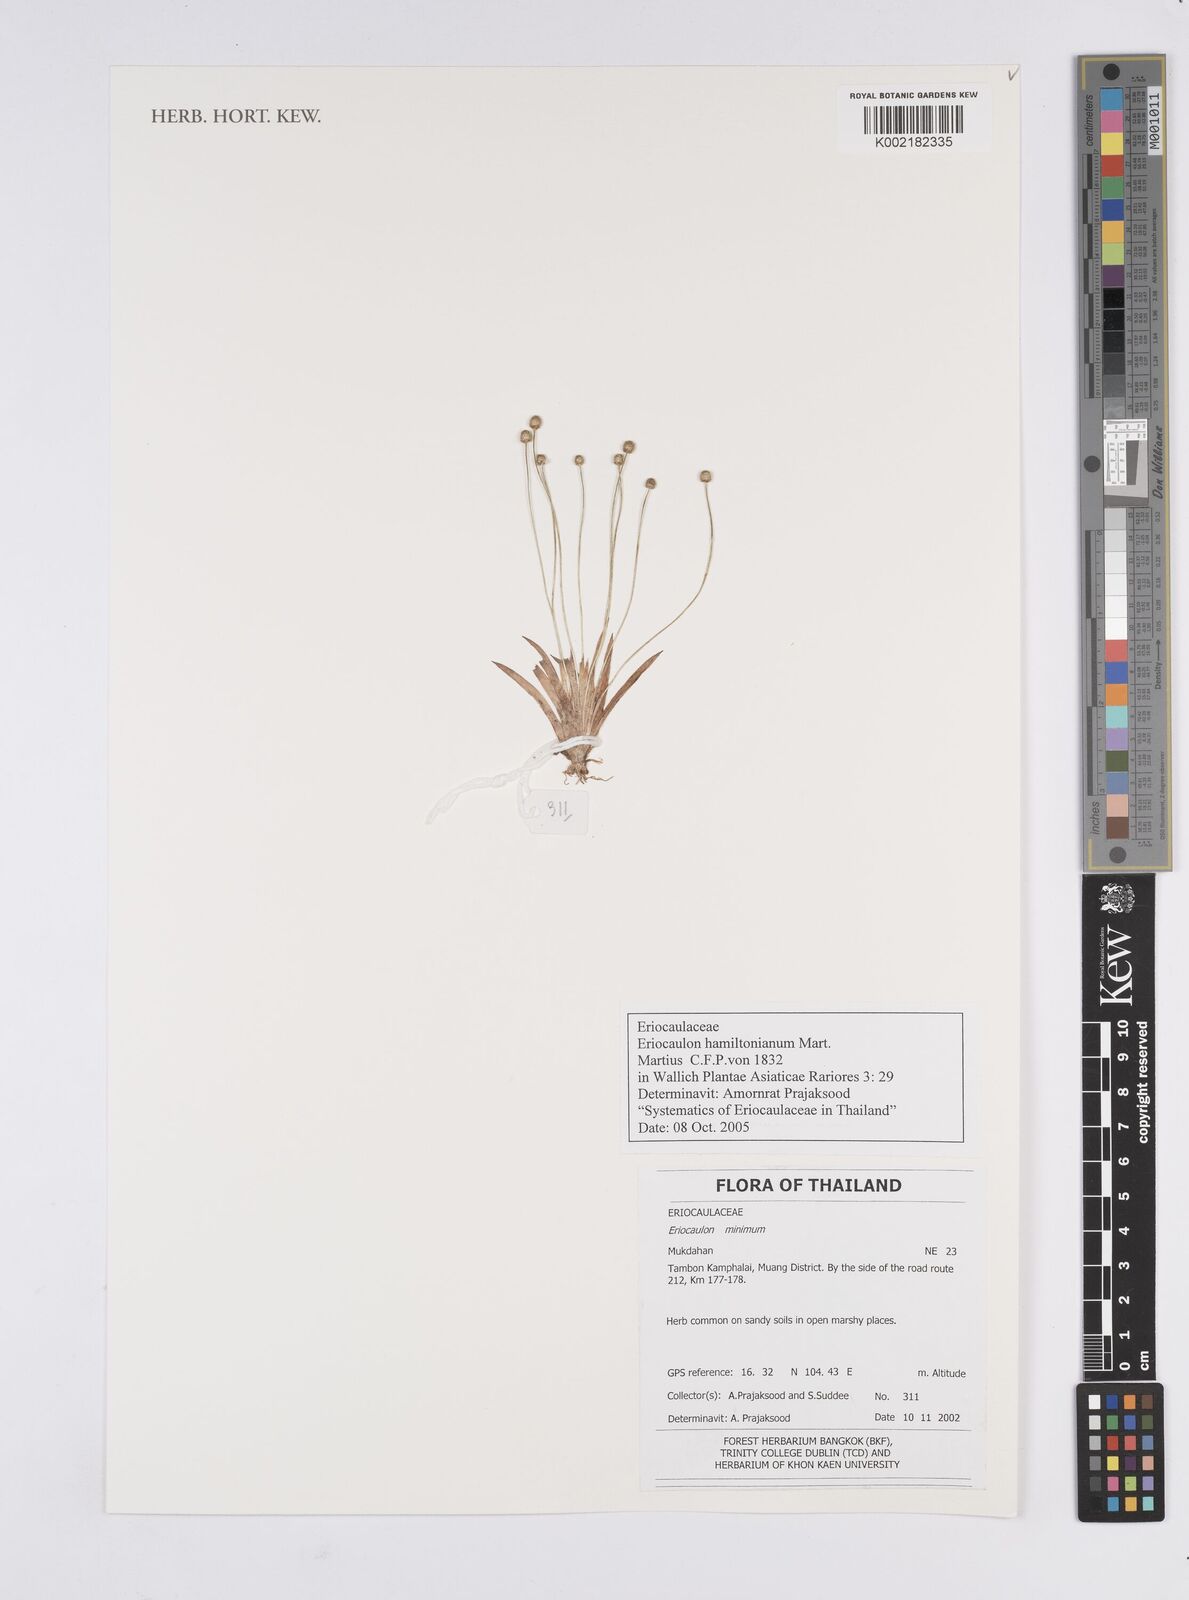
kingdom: Plantae
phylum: Tracheophyta
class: Liliopsida
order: Poales
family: Eriocaulaceae
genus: Eriocaulon
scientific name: Eriocaulon hamiltonianum
